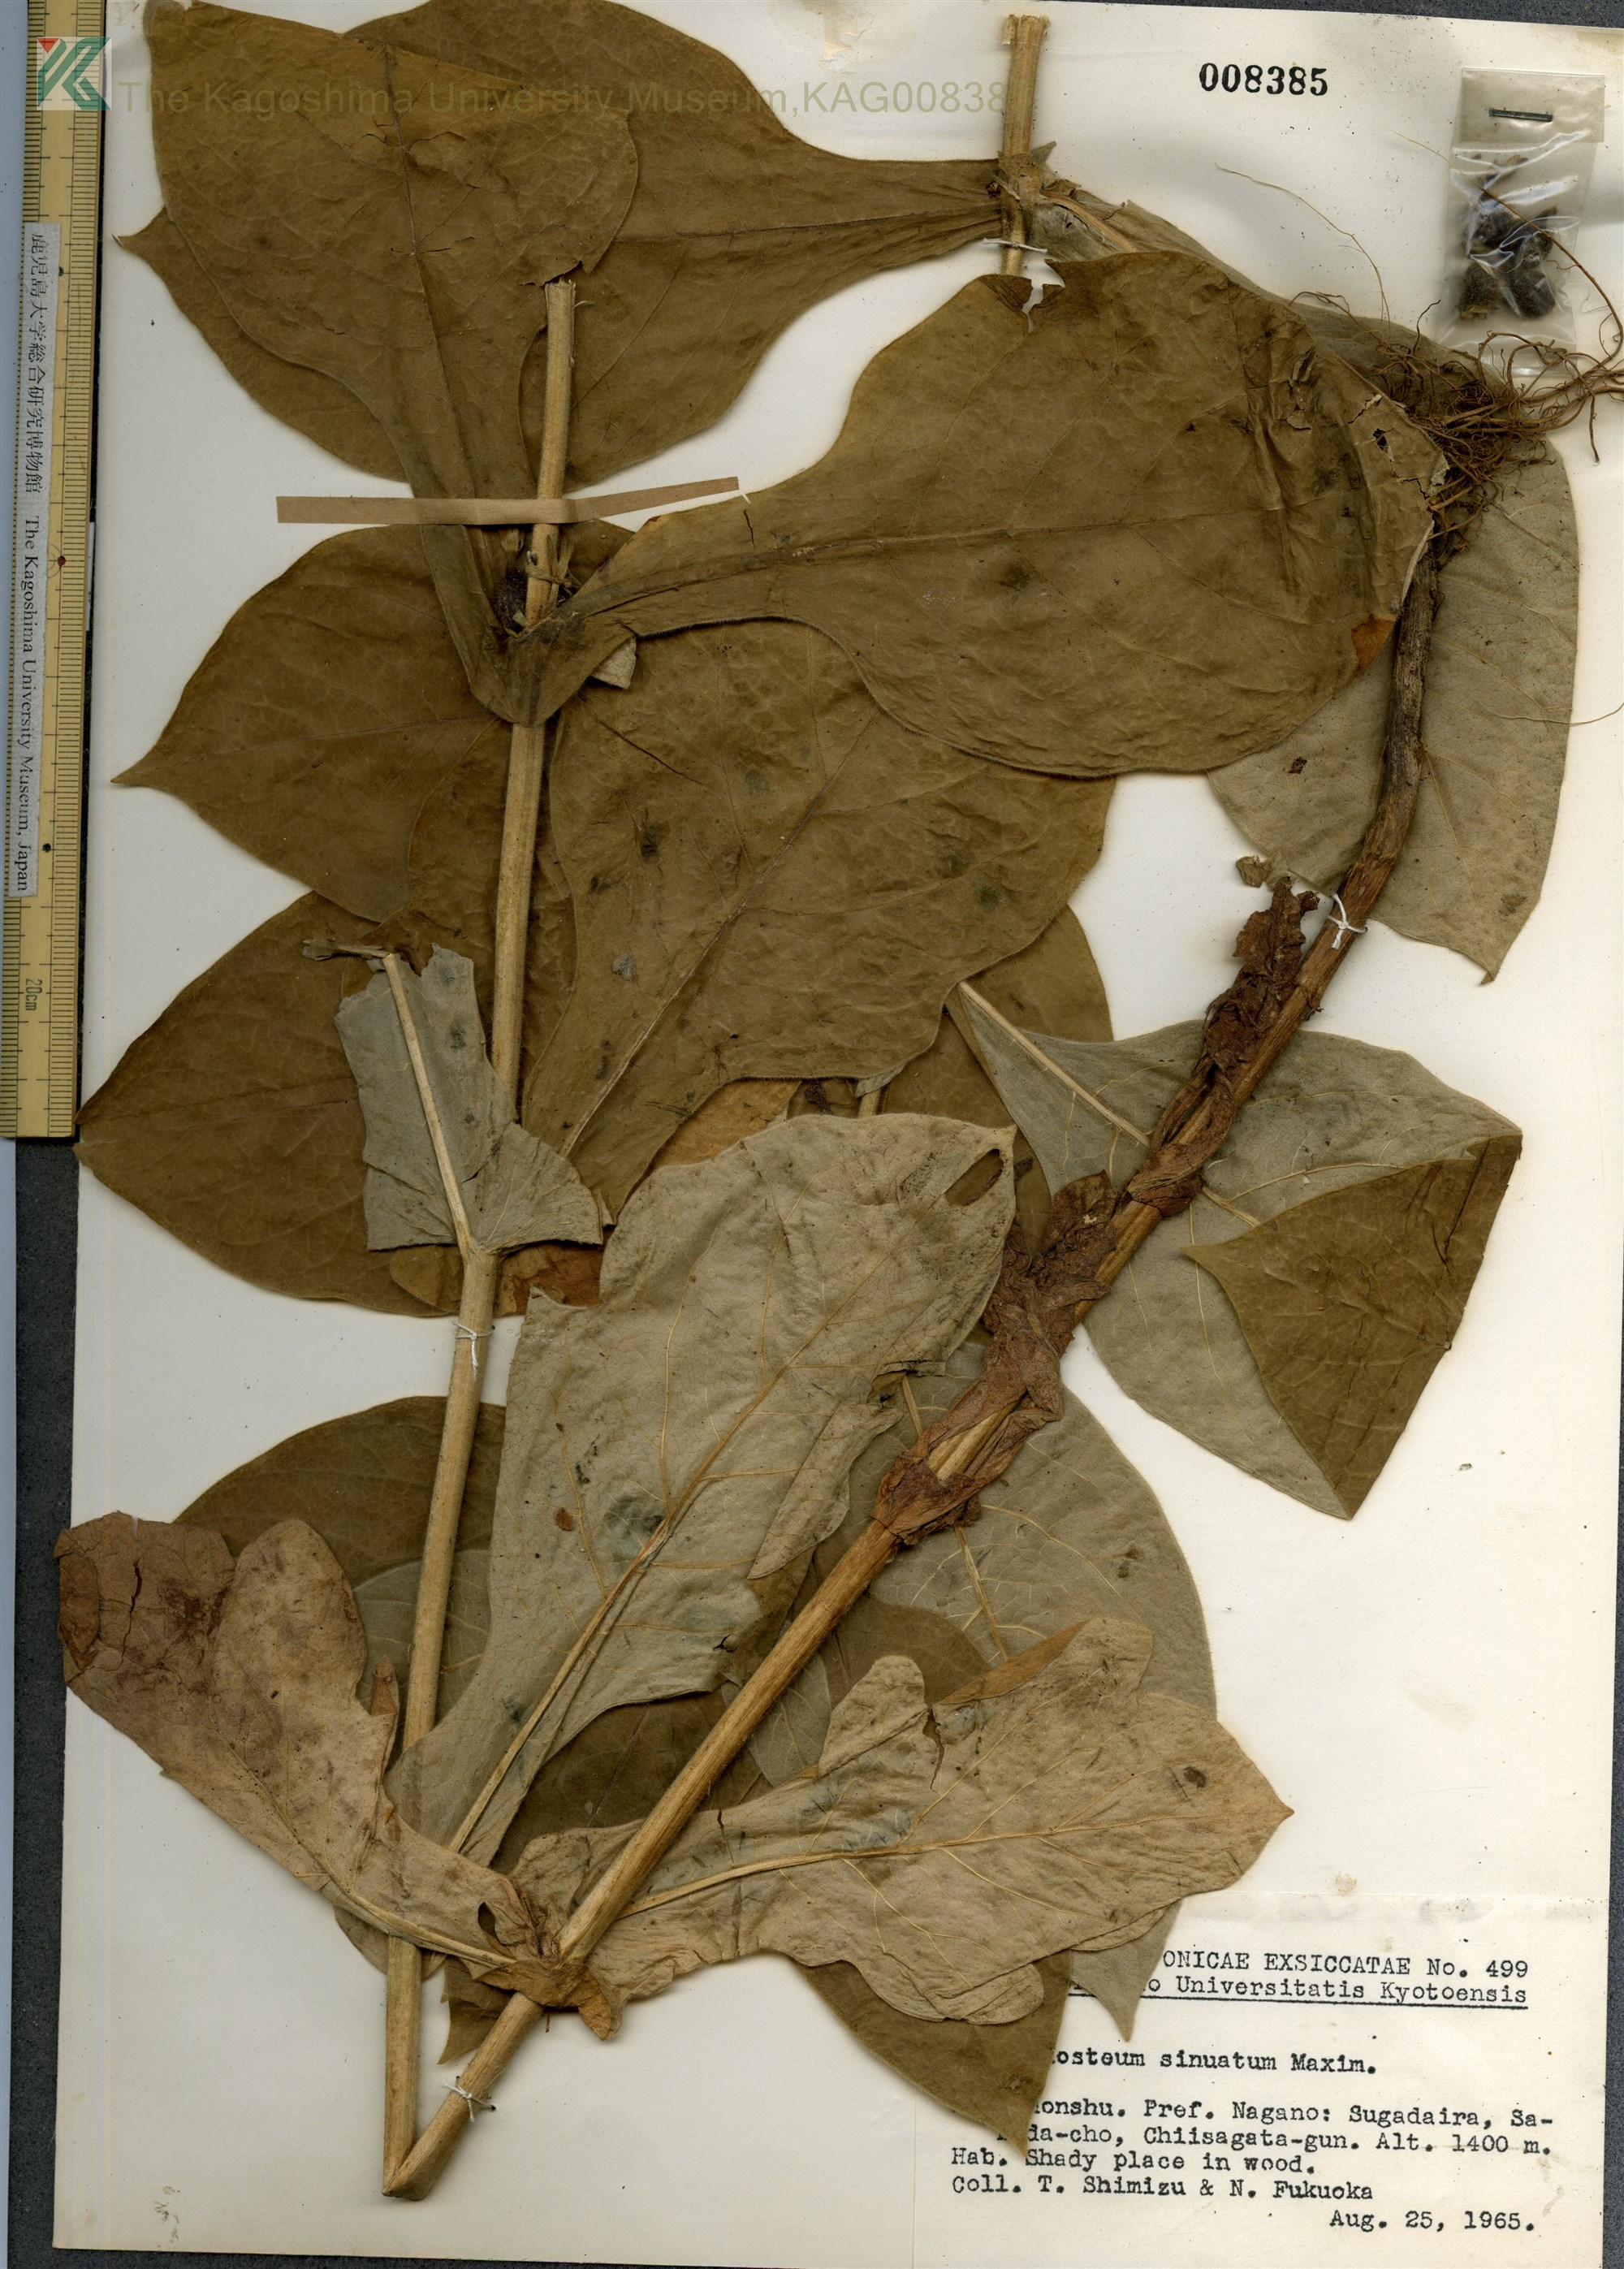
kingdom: Plantae
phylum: Tracheophyta
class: Magnoliopsida
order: Dipsacales
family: Caprifoliaceae
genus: Triosteum
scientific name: Triosteum sinuatum
